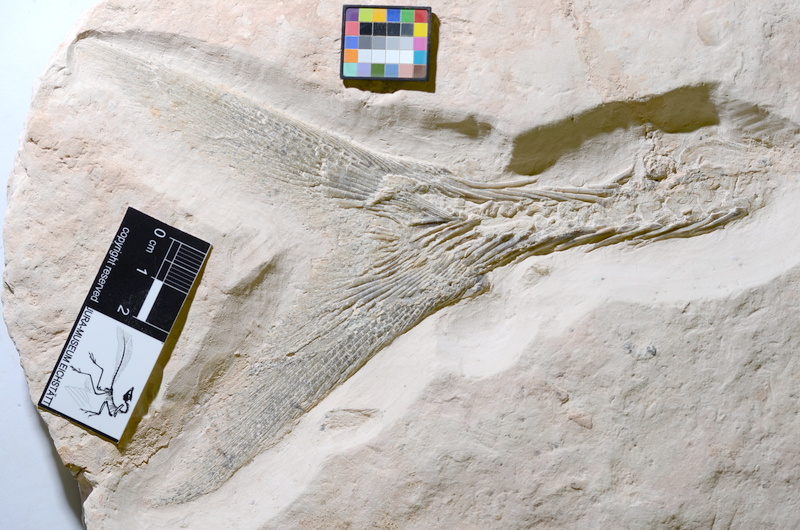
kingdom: Animalia
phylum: Chordata
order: Amiiformes
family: Caturidae
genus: Caturus
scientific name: Caturus furcatus
